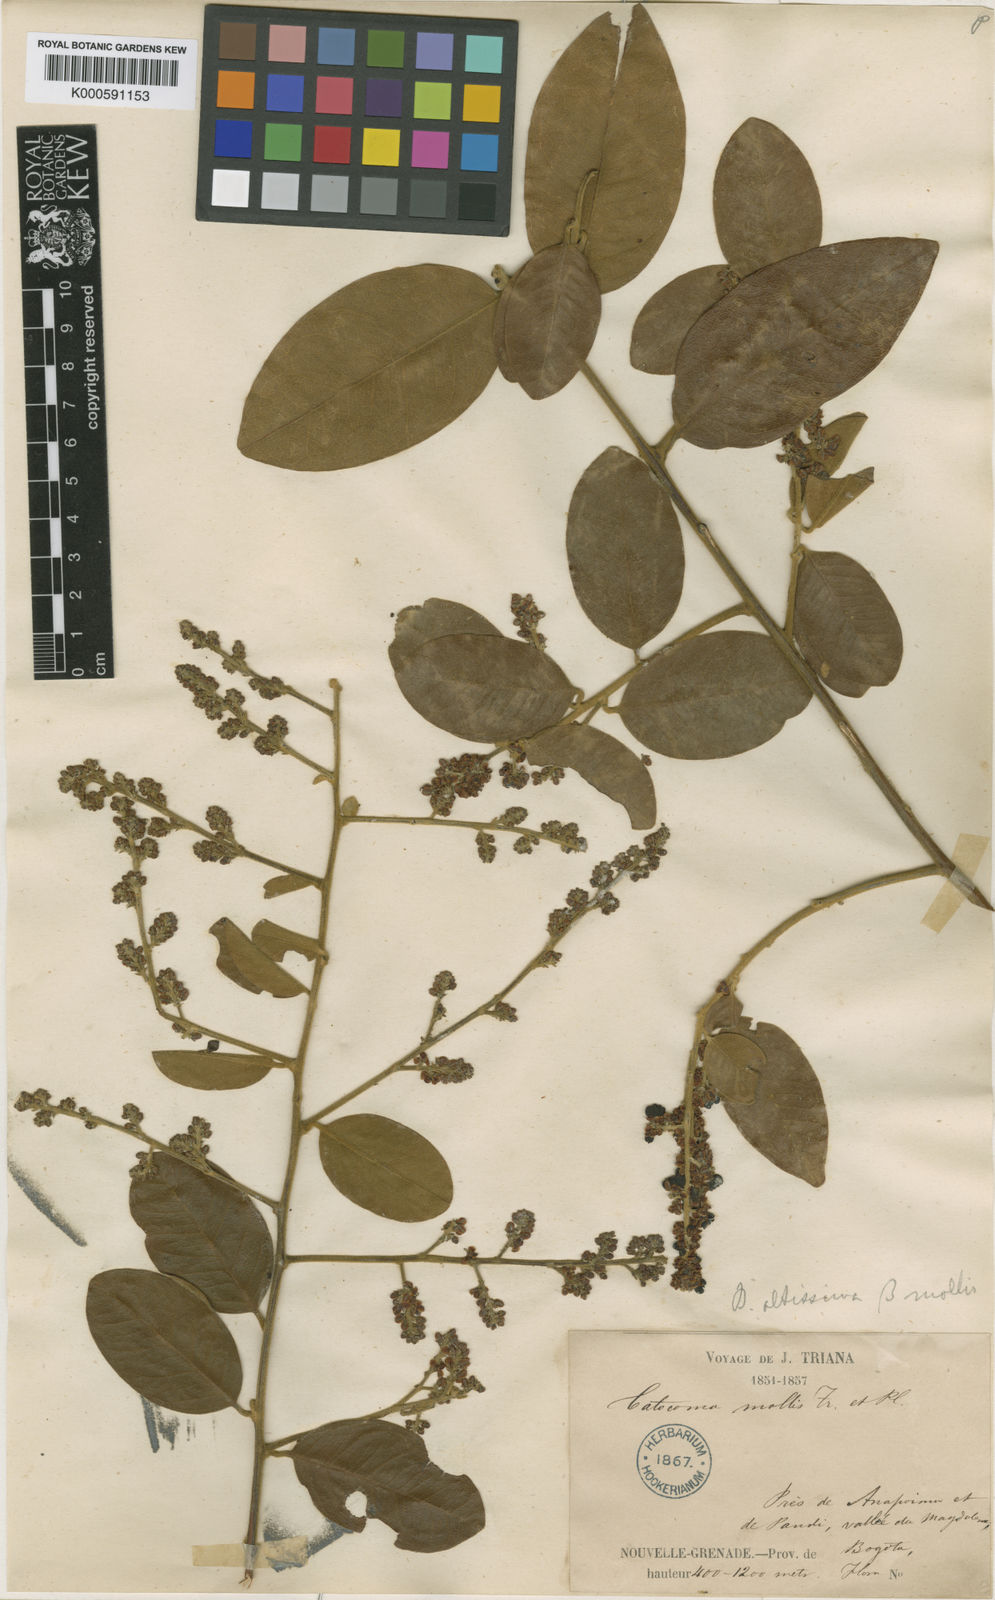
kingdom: Plantae
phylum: Tracheophyta
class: Magnoliopsida
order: Fabales
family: Polygalaceae
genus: Bredemeyera
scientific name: Bredemeyera divaricata
